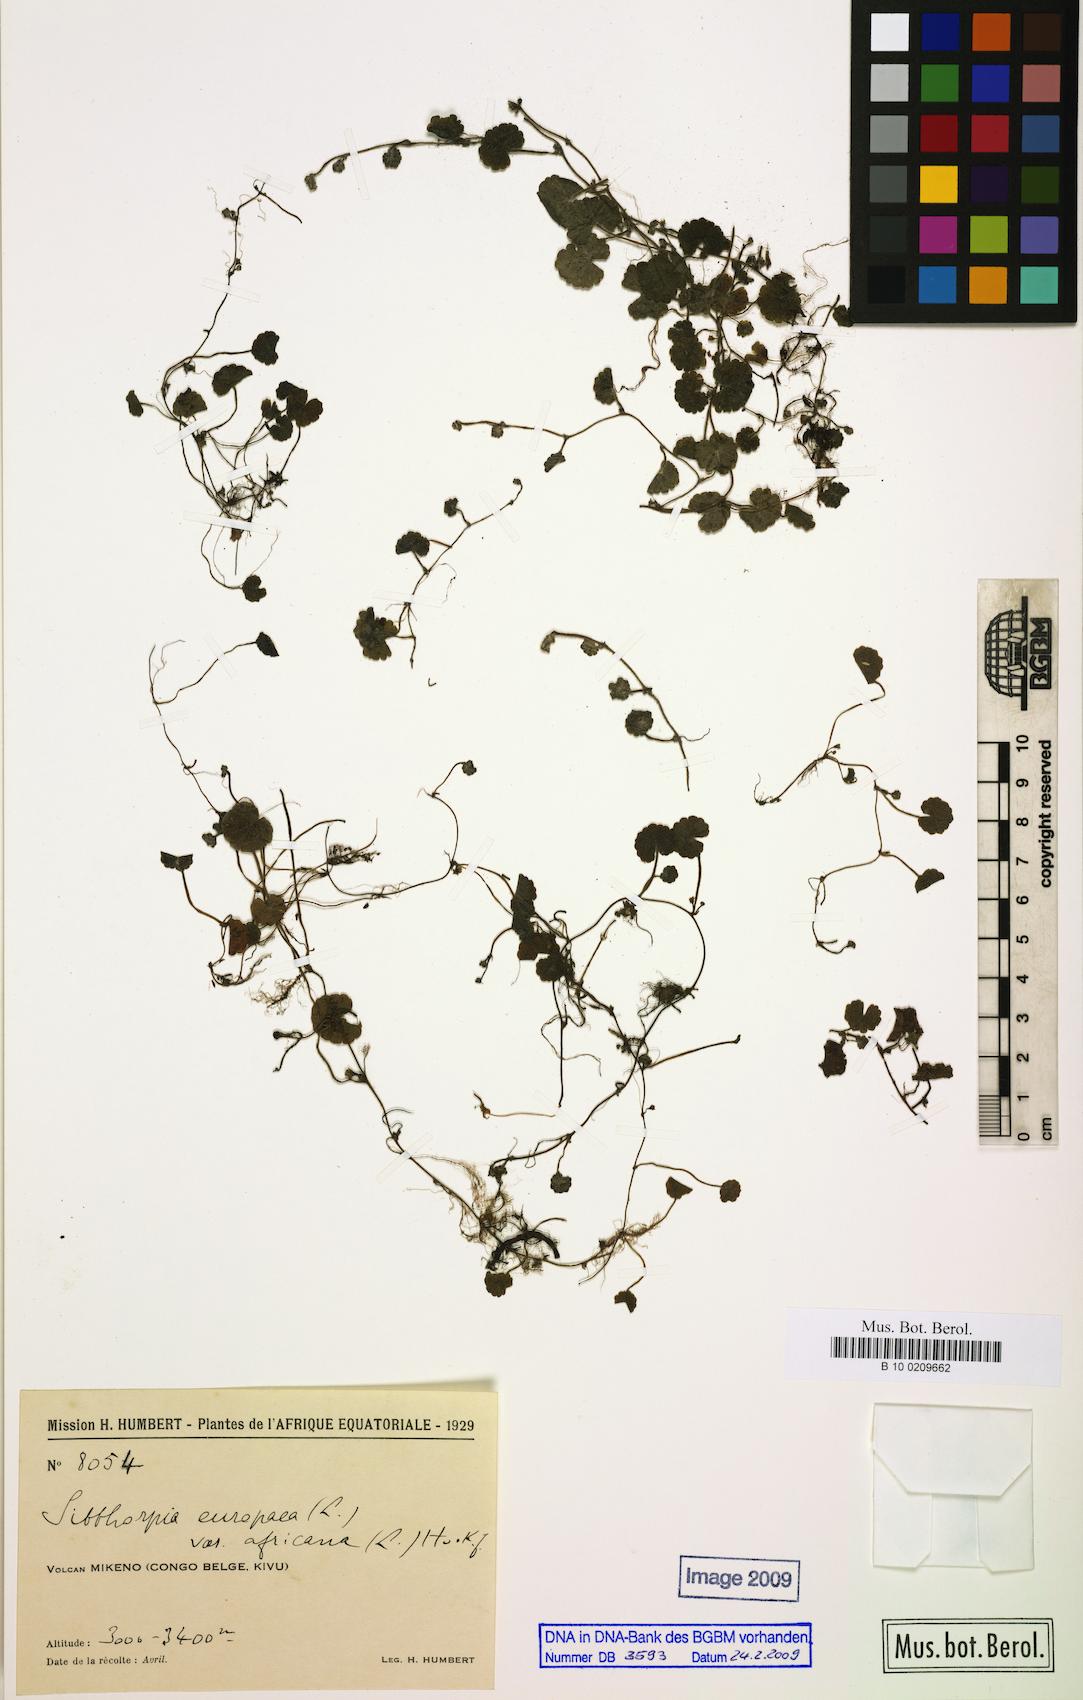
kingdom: Plantae
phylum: Tracheophyta
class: Magnoliopsida
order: Lamiales
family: Plantaginaceae
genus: Sibthorpia
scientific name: Sibthorpia europaea
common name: Cornish moneywort
